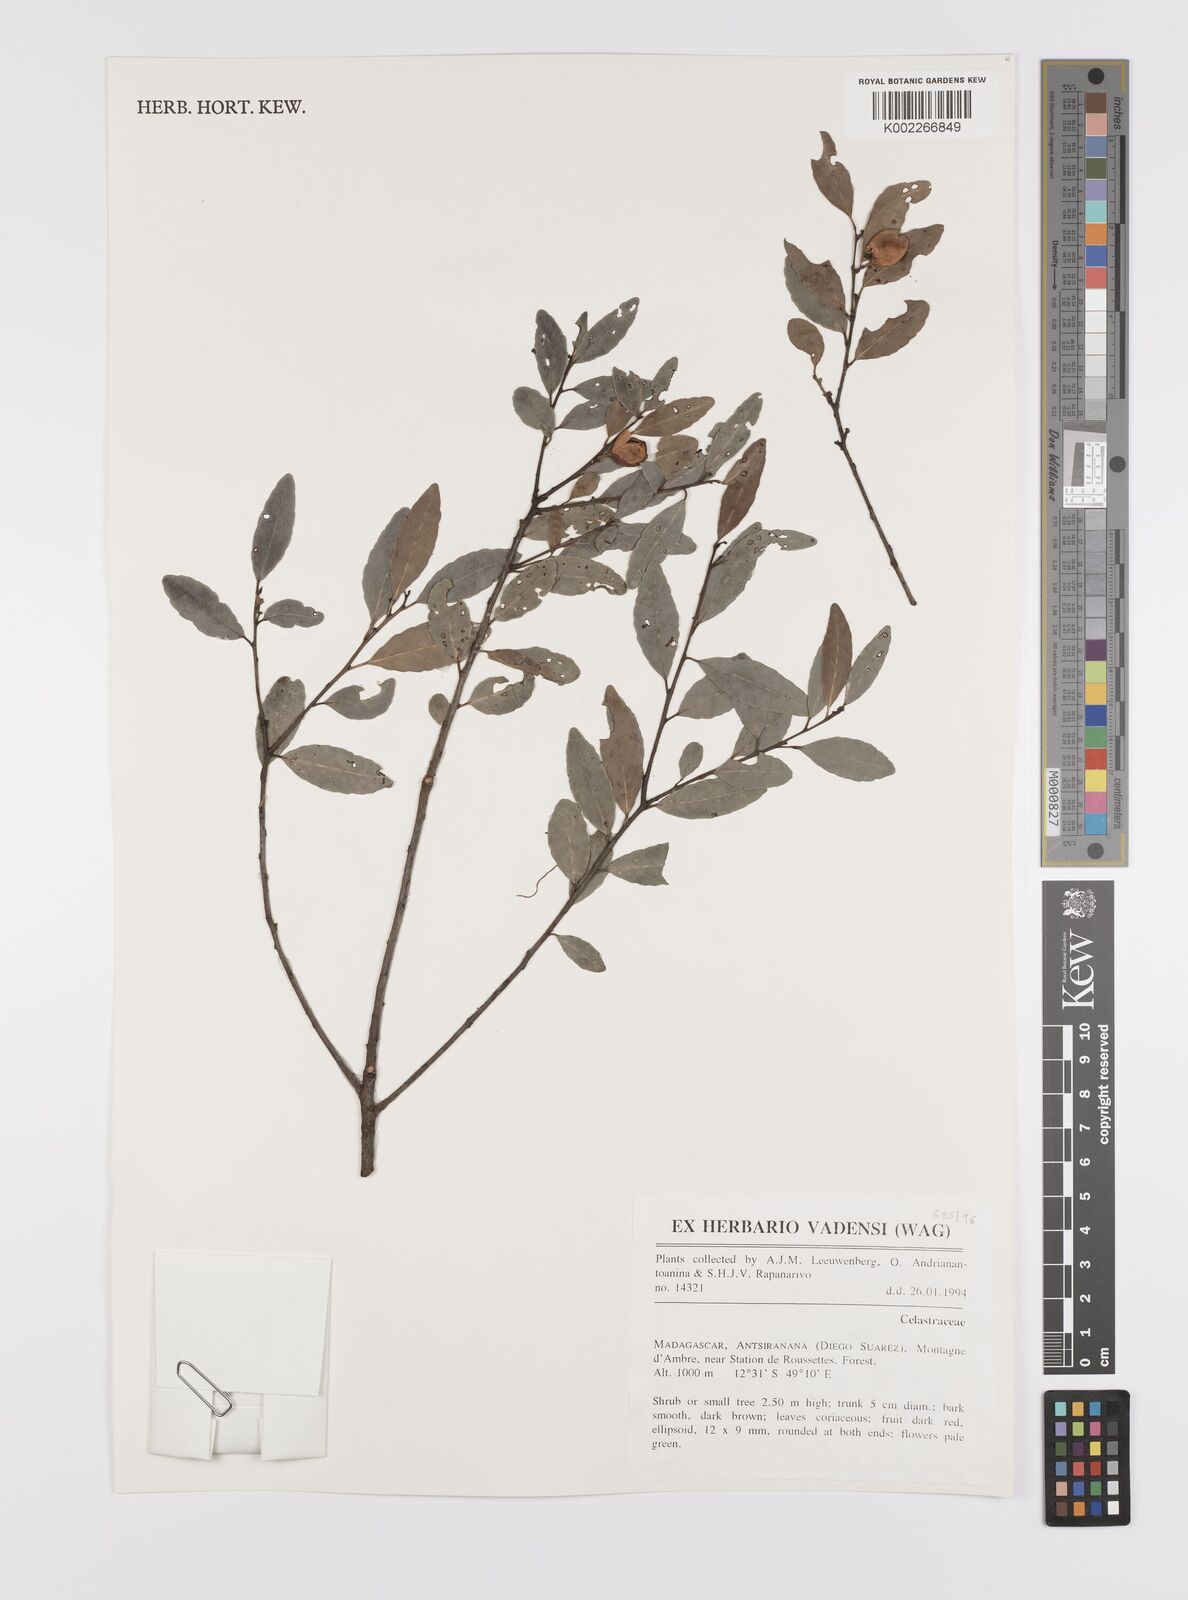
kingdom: Plantae
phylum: Tracheophyta
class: Magnoliopsida
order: Celastrales
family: Celastraceae
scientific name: Celastraceae
